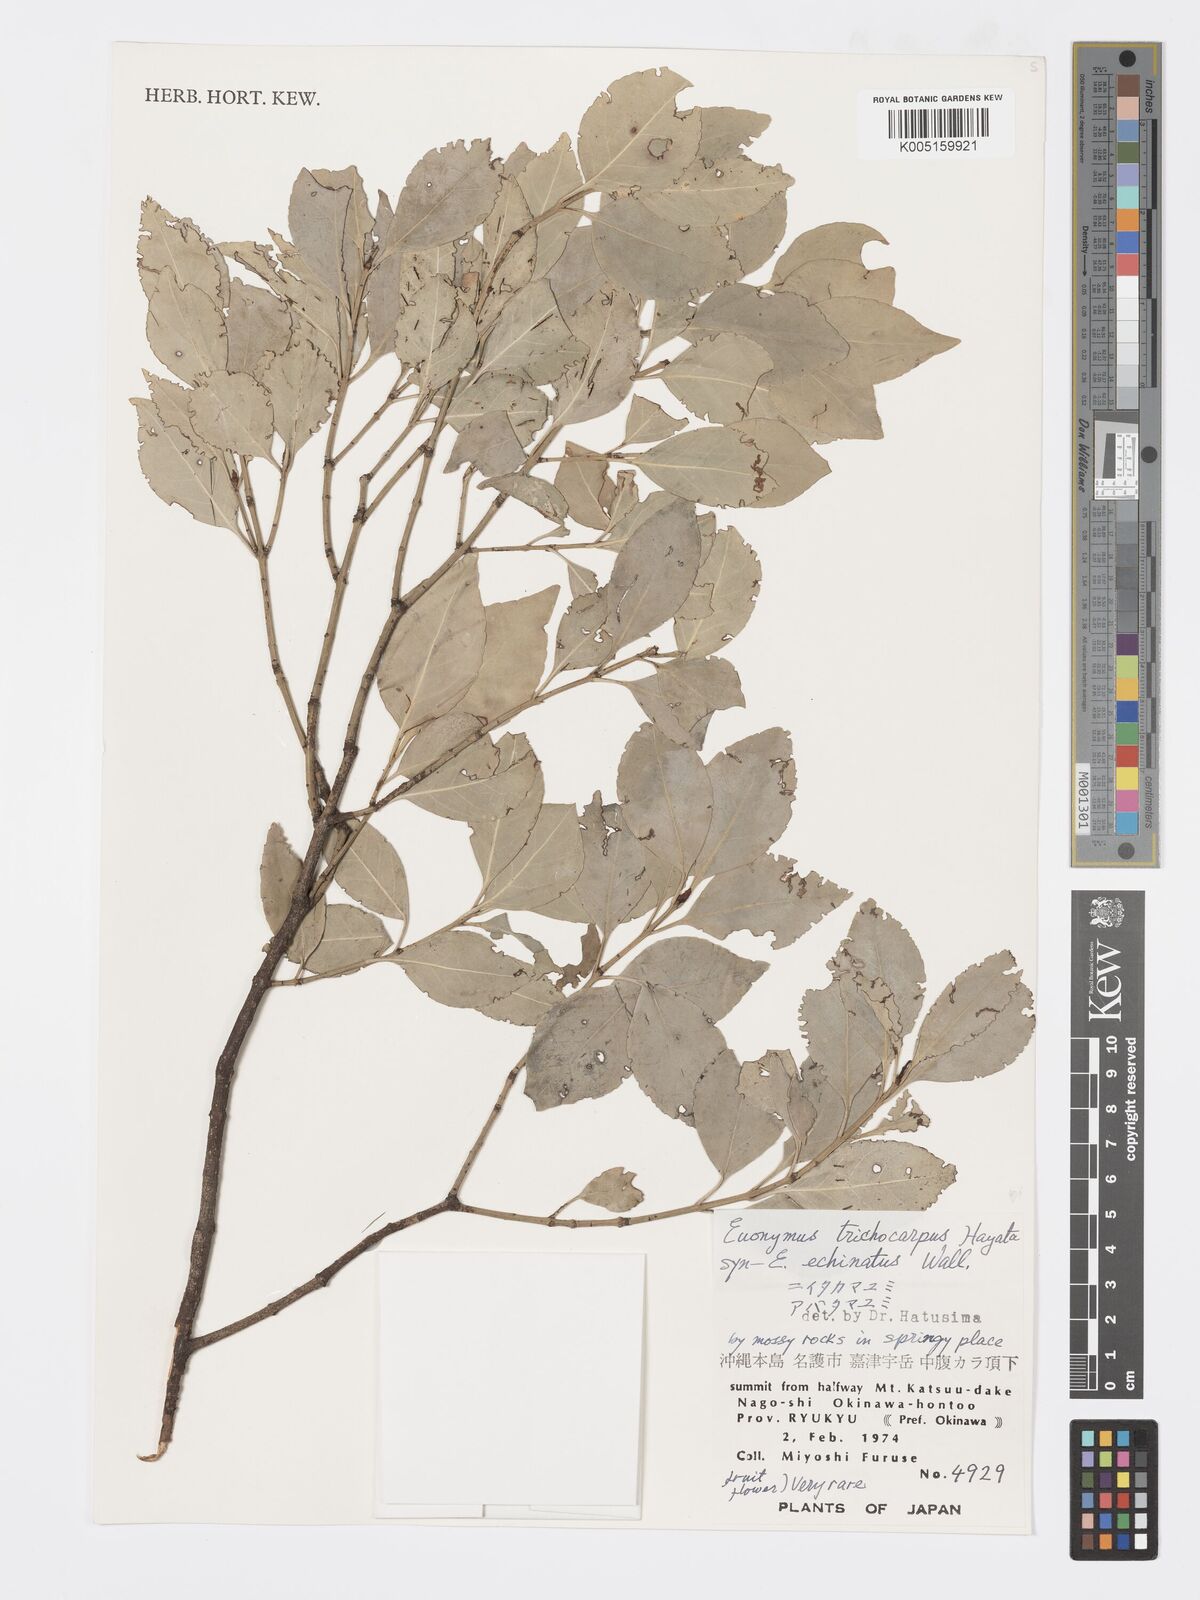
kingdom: Plantae
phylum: Tracheophyta
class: Magnoliopsida
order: Celastrales
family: Celastraceae
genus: Euonymus
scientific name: Euonymus echinatus
